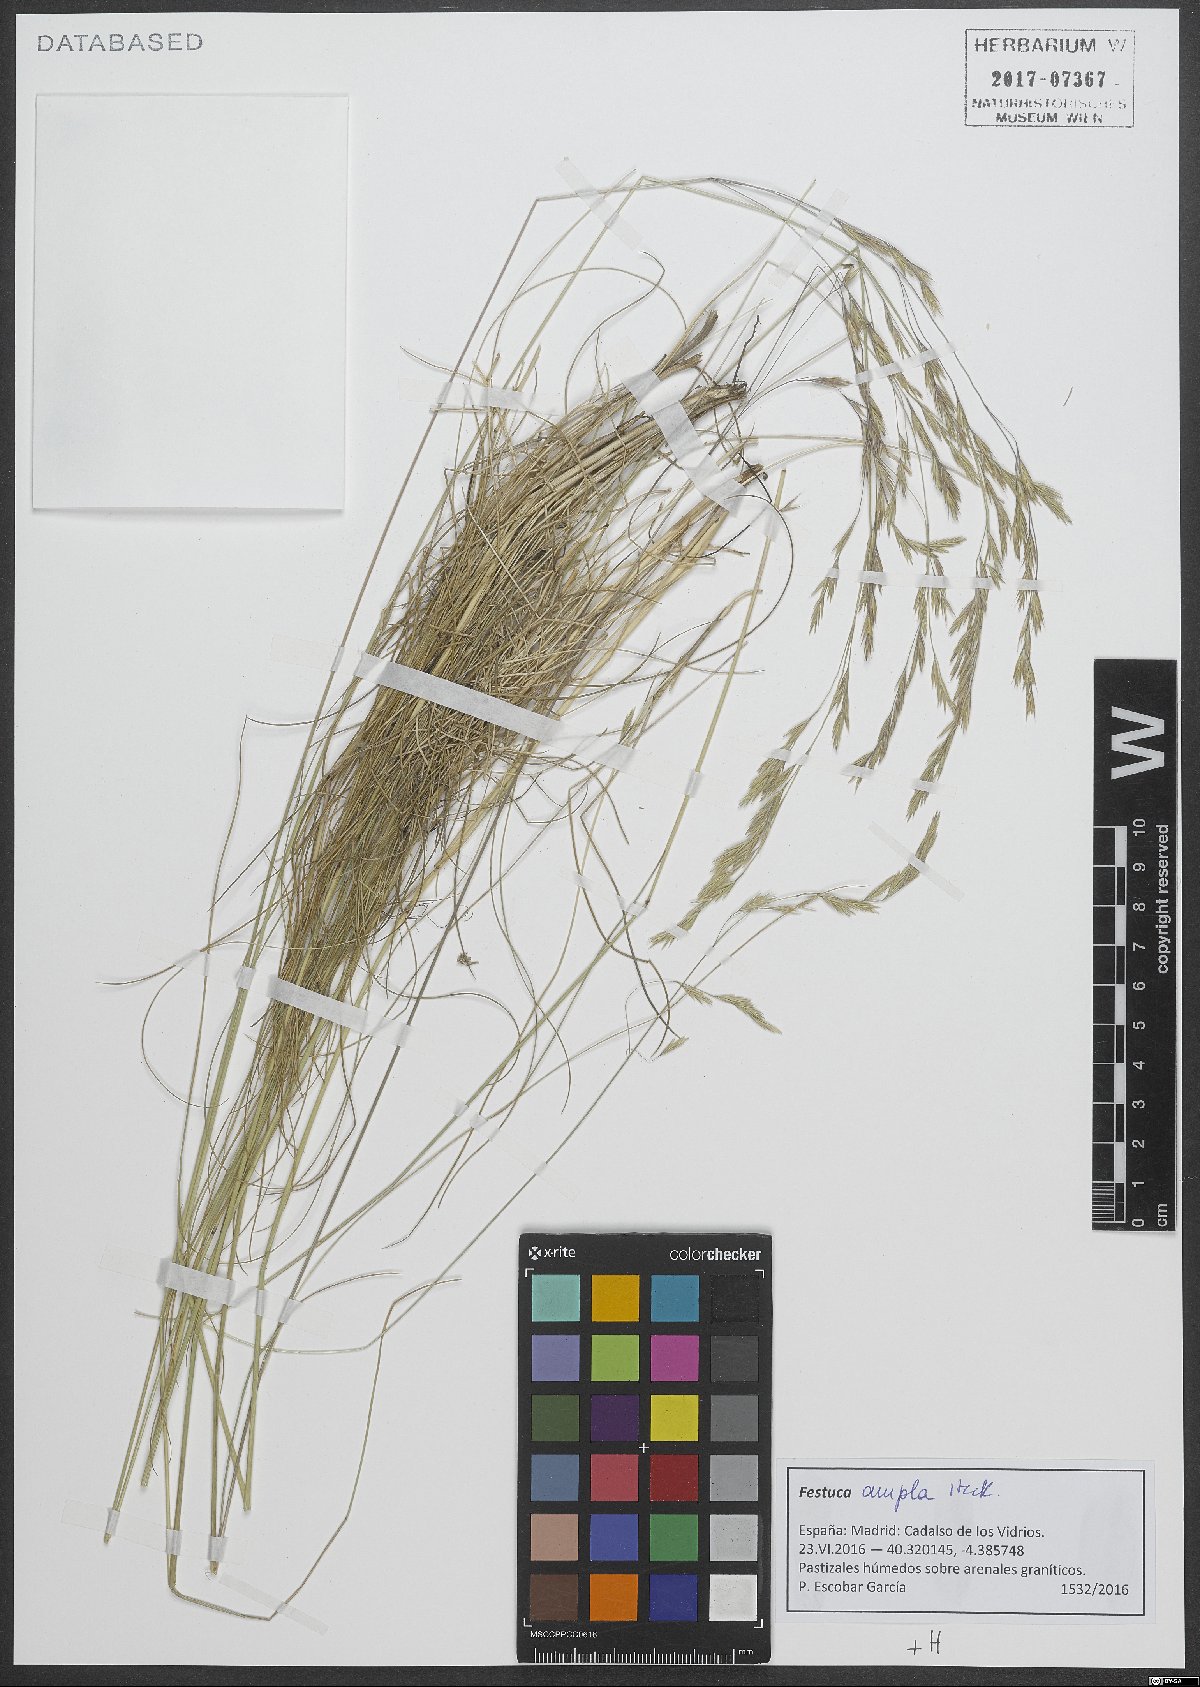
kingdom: Plantae
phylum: Tracheophyta
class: Liliopsida
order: Poales
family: Poaceae
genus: Festuca
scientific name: Festuca ampla
